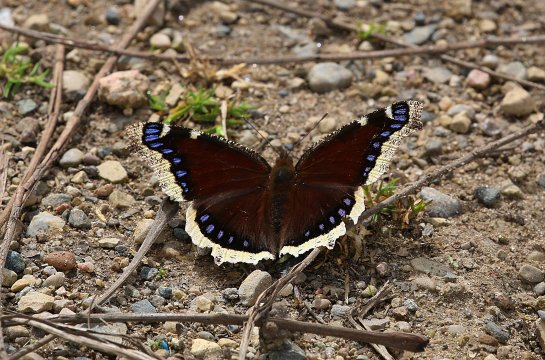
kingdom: Animalia
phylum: Arthropoda
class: Insecta
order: Lepidoptera
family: Nymphalidae
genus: Nymphalis
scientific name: Nymphalis antiopa
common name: Mourning Cloak
